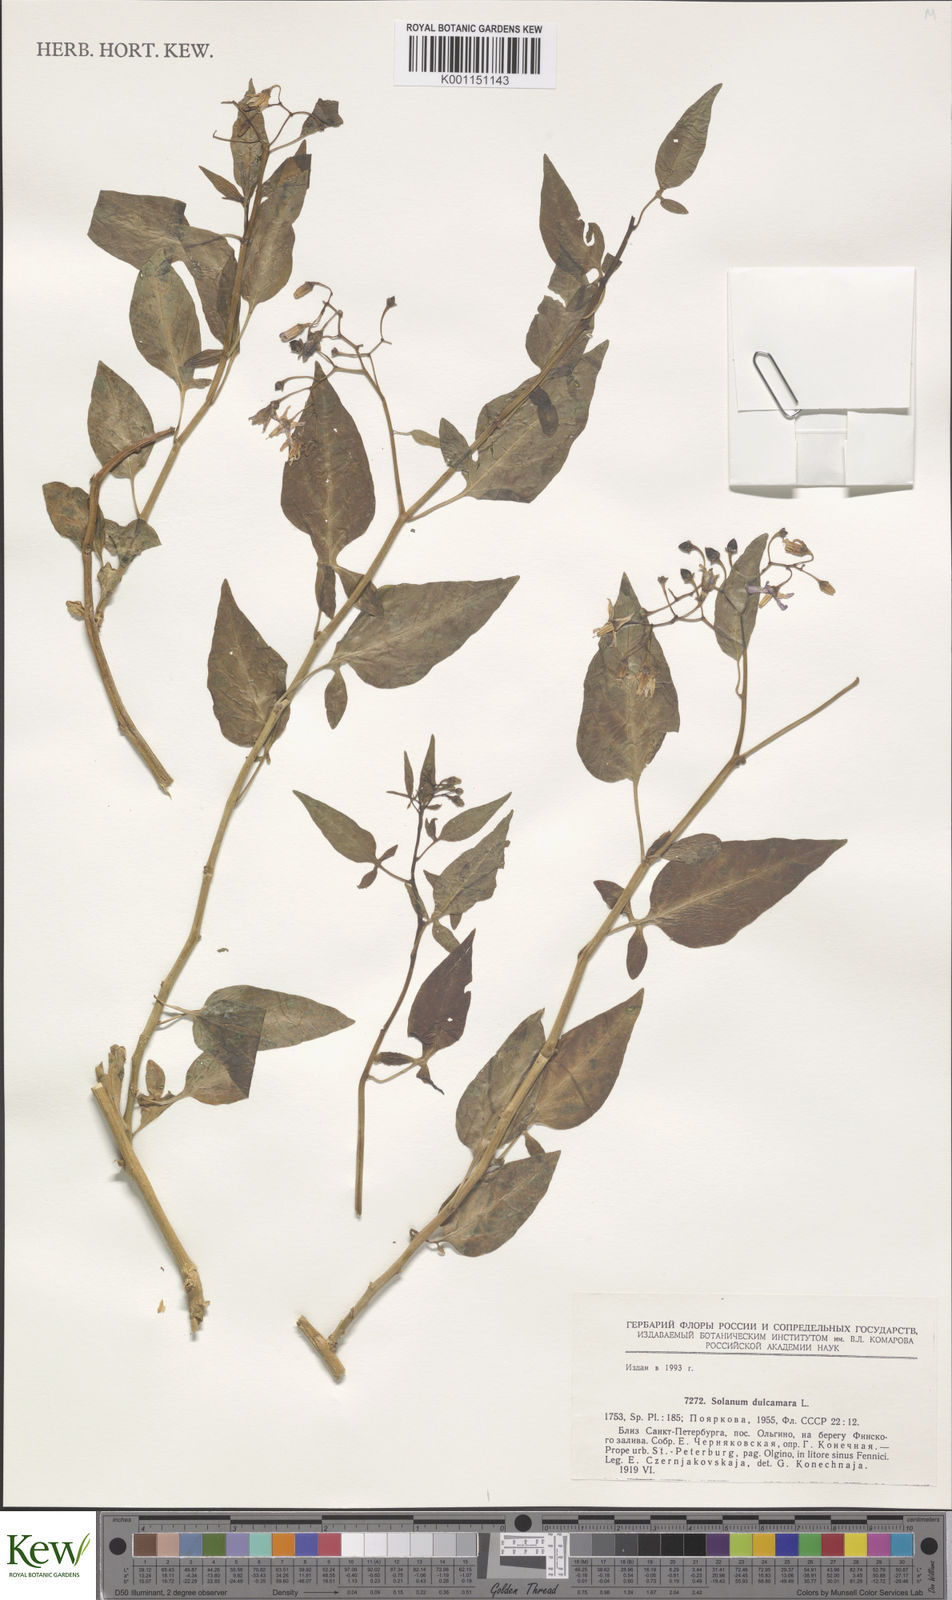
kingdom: Plantae
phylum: Tracheophyta
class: Magnoliopsida
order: Solanales
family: Solanaceae
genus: Solanum
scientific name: Solanum dulcamara
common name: Climbing nightshade
